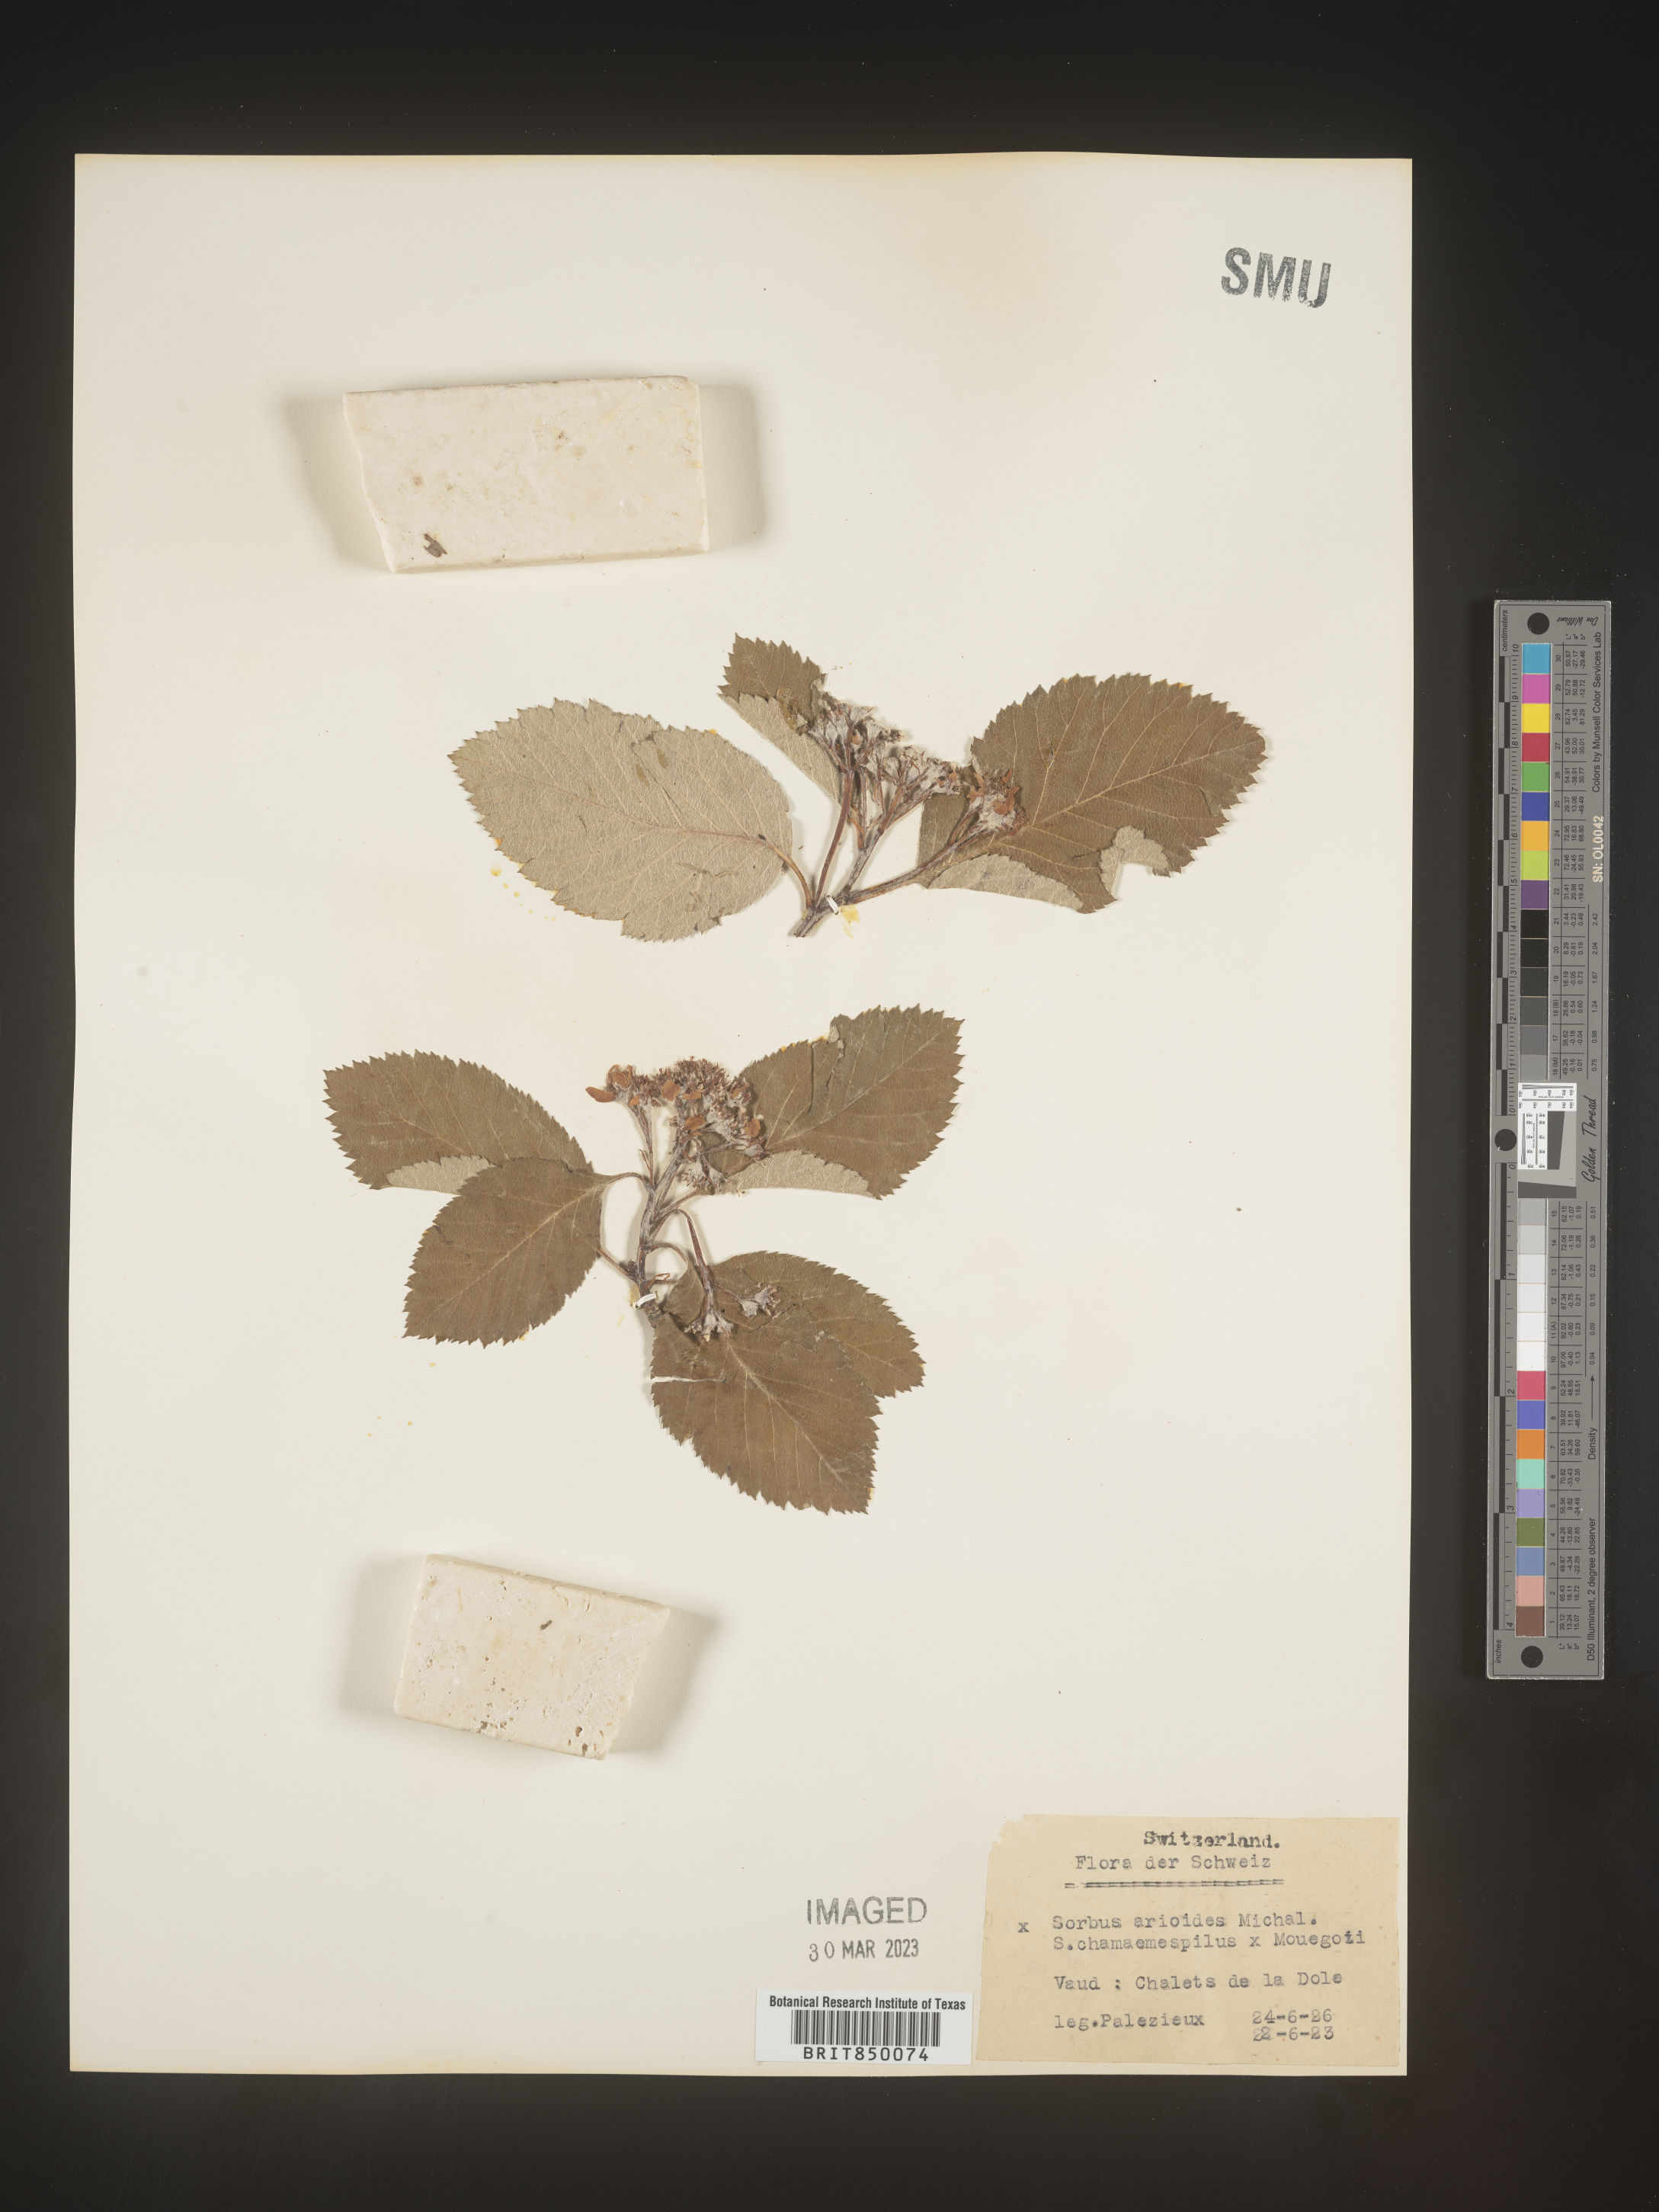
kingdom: Plantae
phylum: Tracheophyta
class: Magnoliopsida
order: Rosales
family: Rosaceae
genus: Sorbus
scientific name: Sorbus
